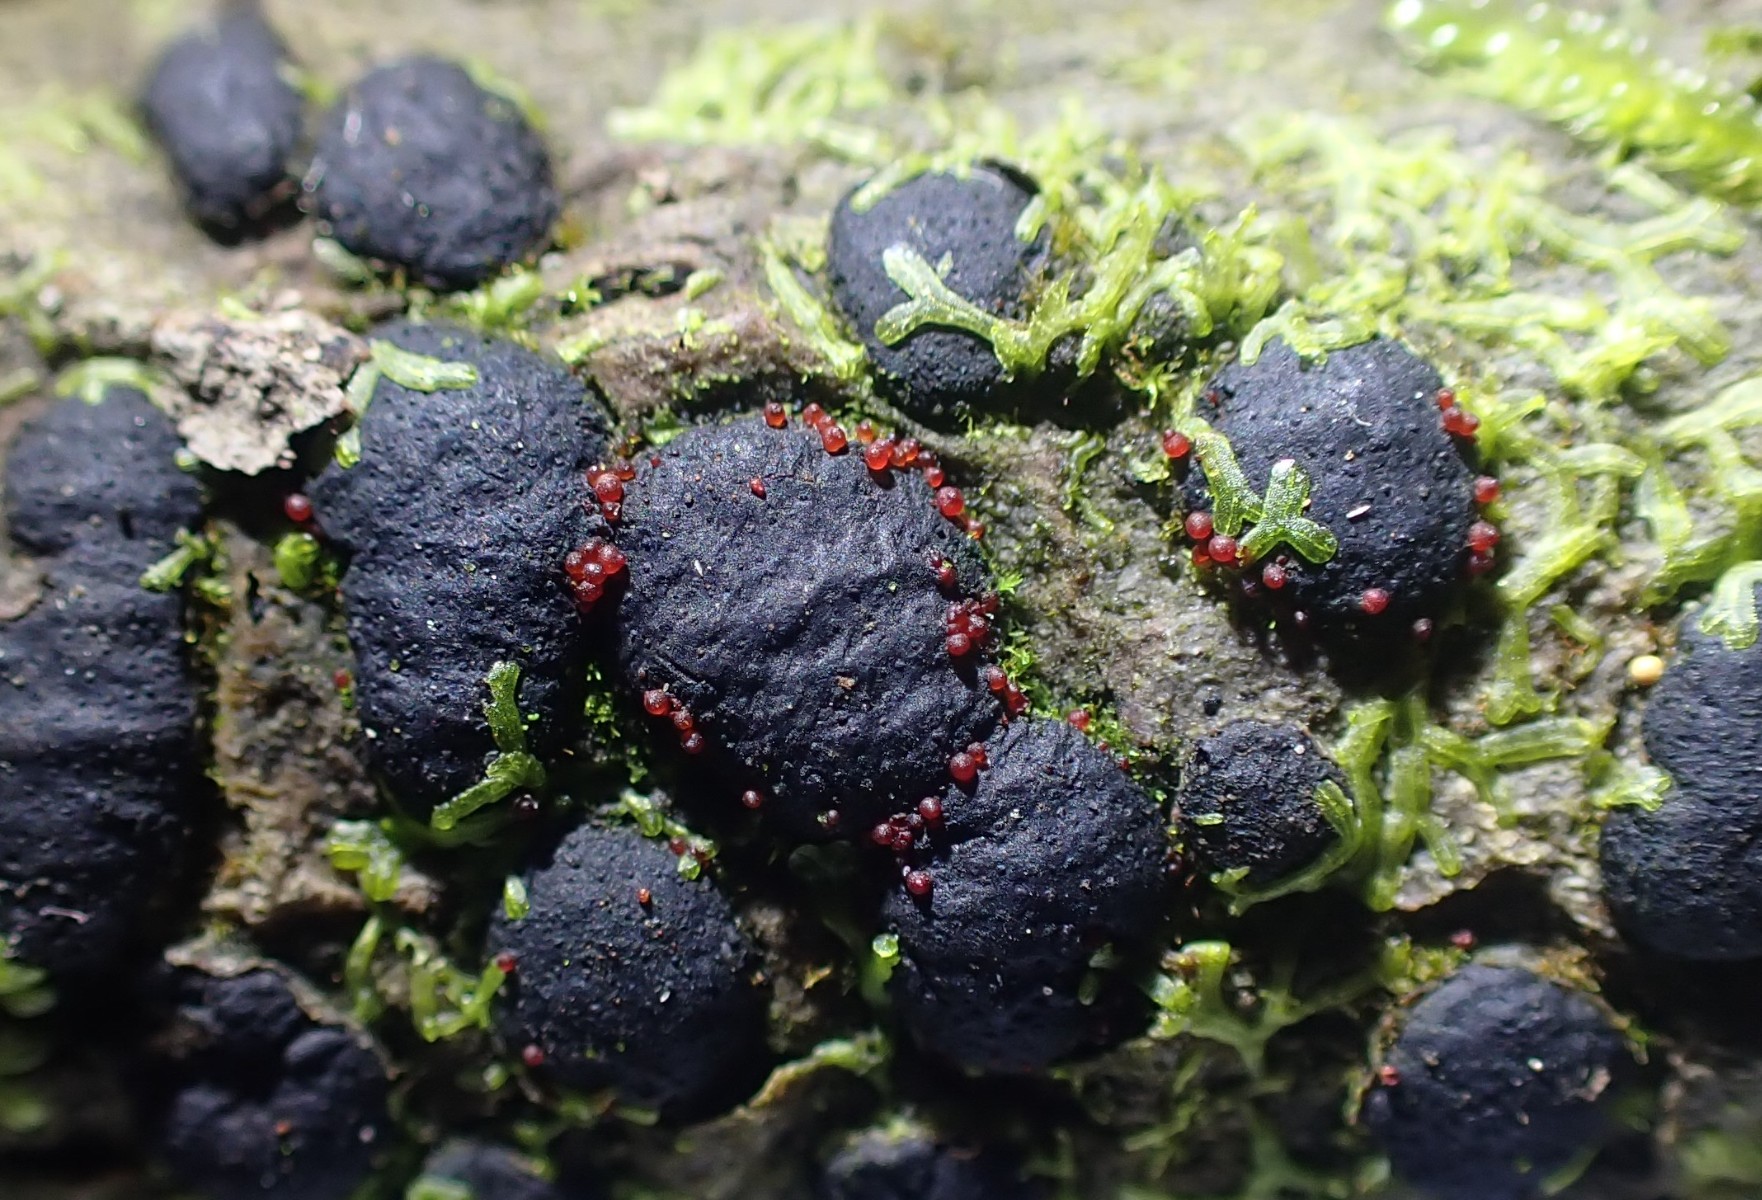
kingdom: Fungi
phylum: Ascomycota
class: Sordariomycetes
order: Hypocreales
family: Nectriaceae
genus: Dialonectria
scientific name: Dialonectria diatrypicola
